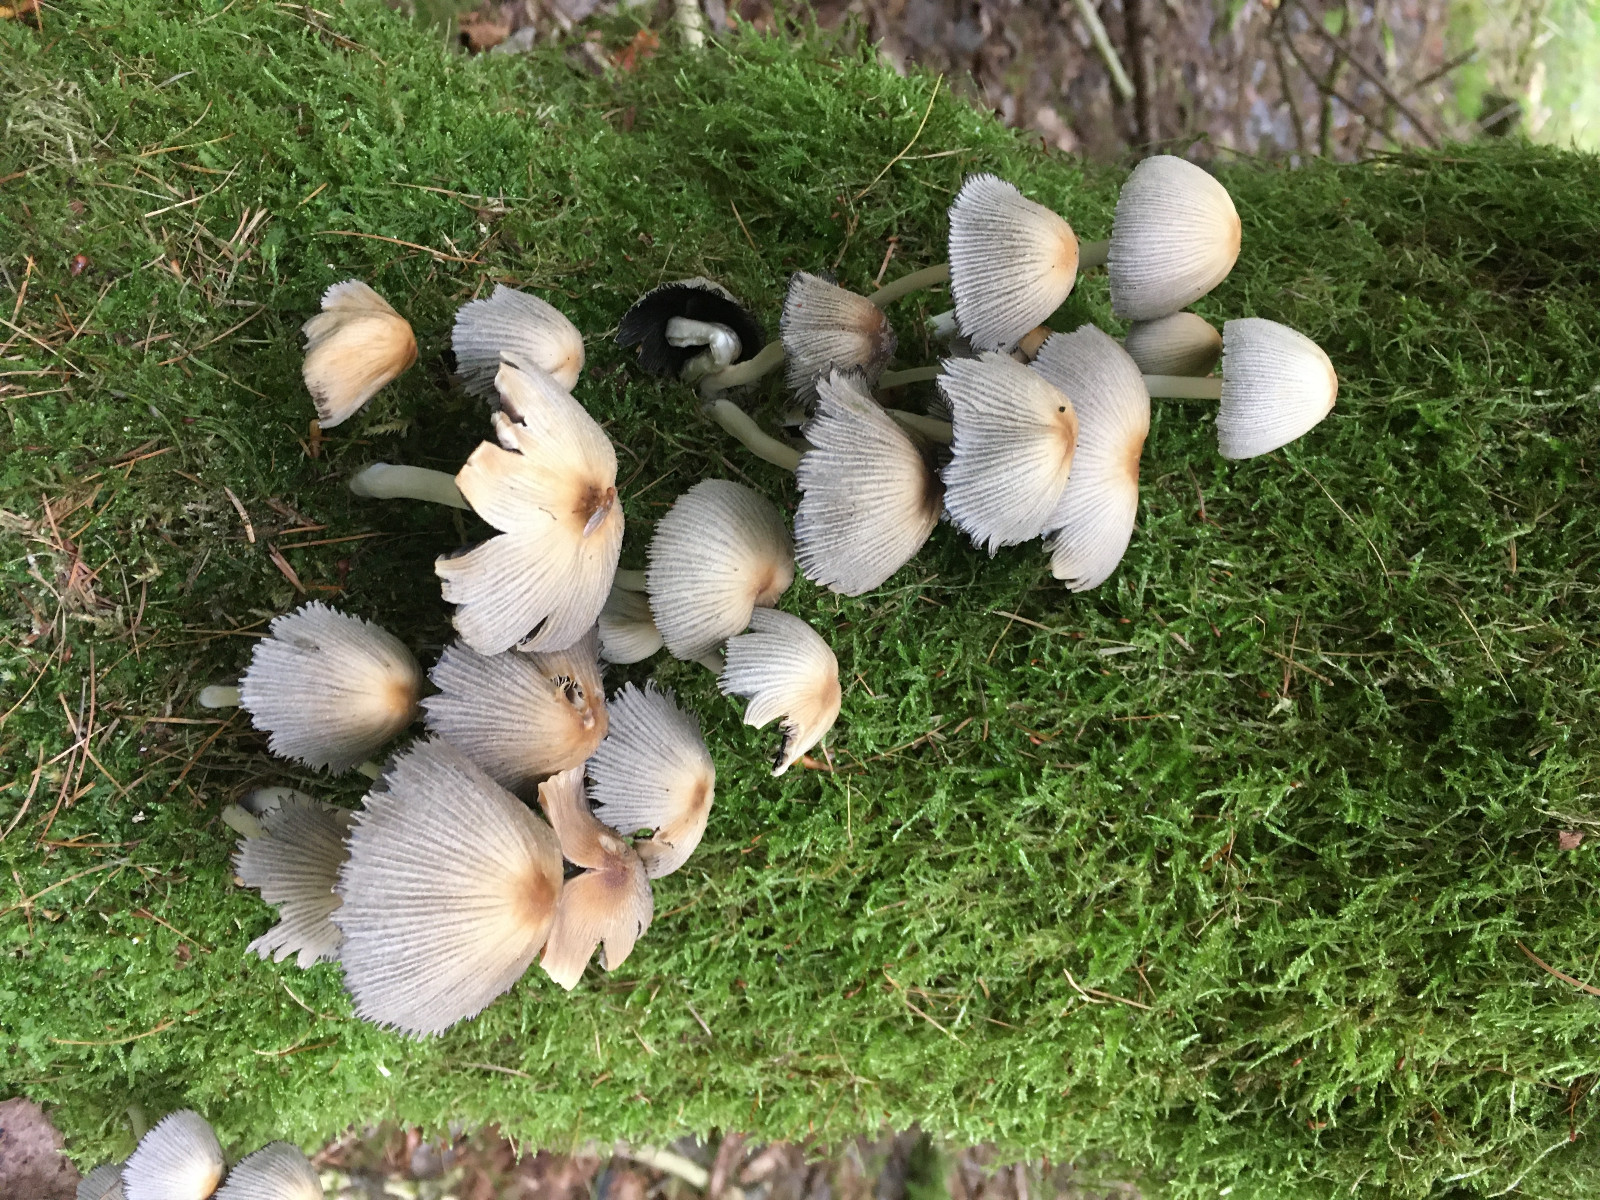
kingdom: Fungi
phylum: Basidiomycota
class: Agaricomycetes
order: Agaricales
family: Psathyrellaceae
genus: Coprinellus
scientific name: Coprinellus micaceus
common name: glimmer-blækhat
